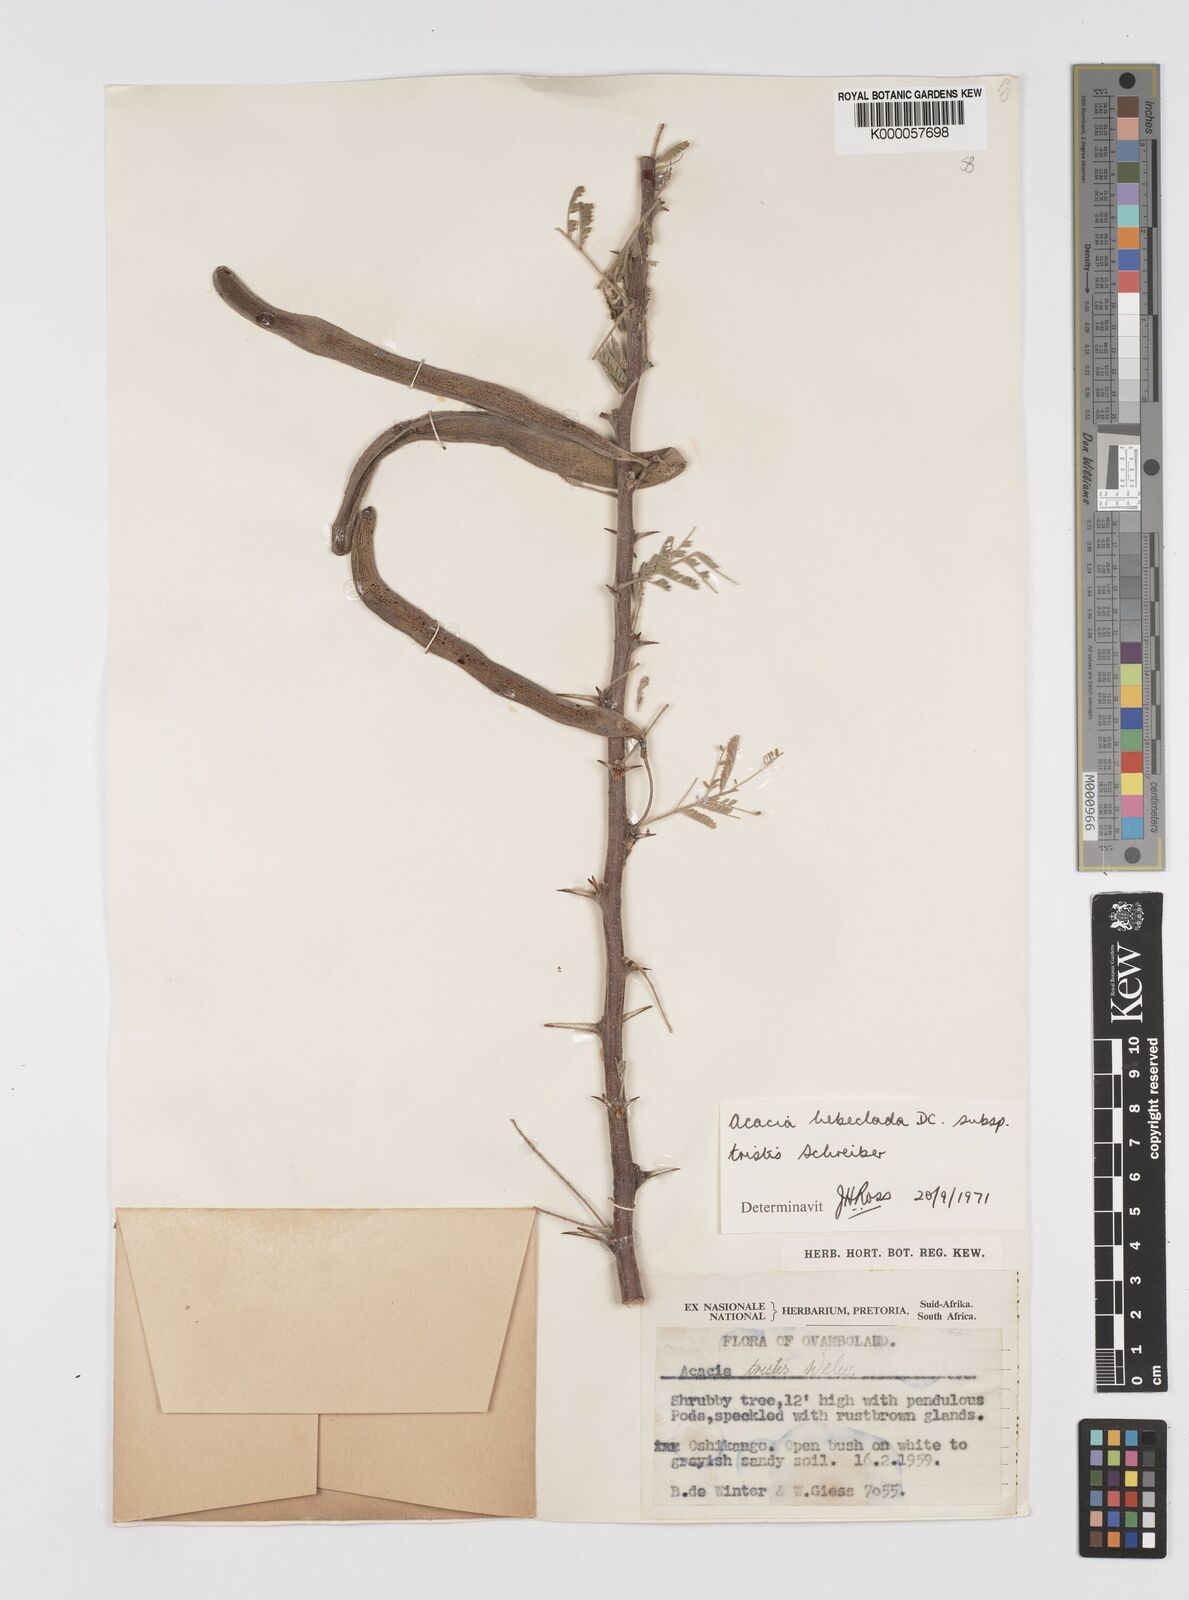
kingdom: Plantae
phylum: Tracheophyta
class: Magnoliopsida
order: Fabales
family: Fabaceae
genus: Vachellia
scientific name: Vachellia hebeclada
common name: Candle thorn
